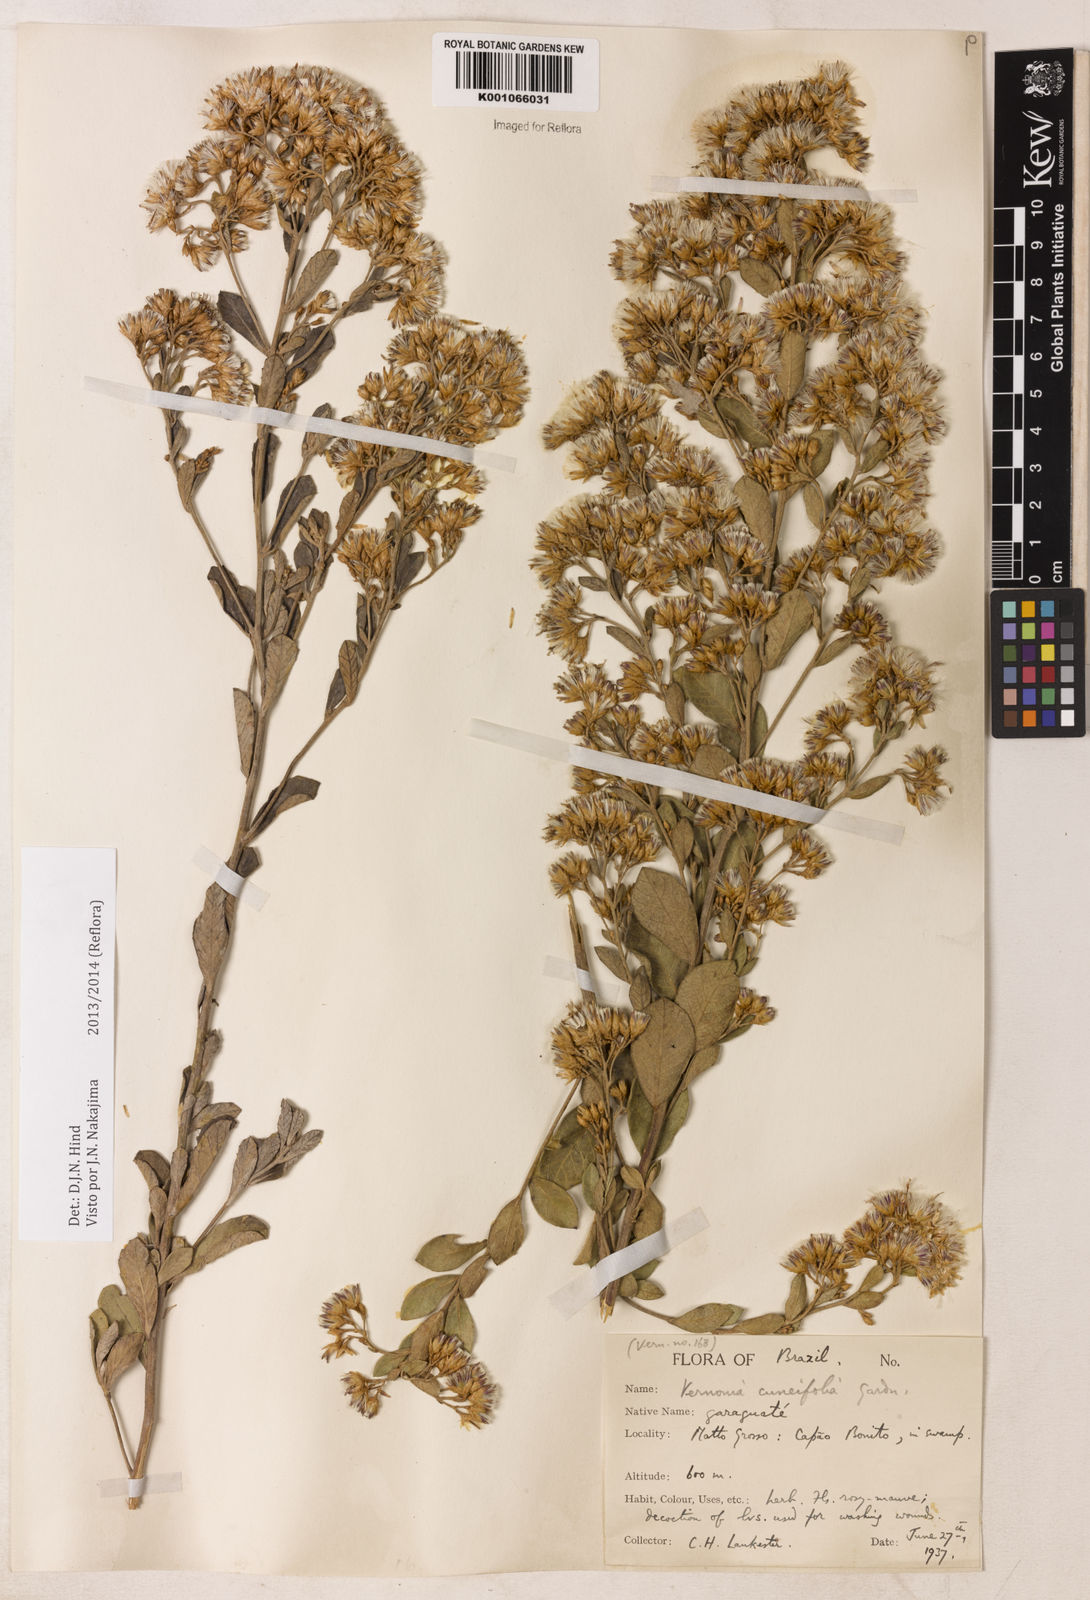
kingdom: Plantae
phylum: Tracheophyta
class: Magnoliopsida
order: Asterales
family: Asteraceae
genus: Vernonanthura
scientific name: Vernonanthura cuneifolia
